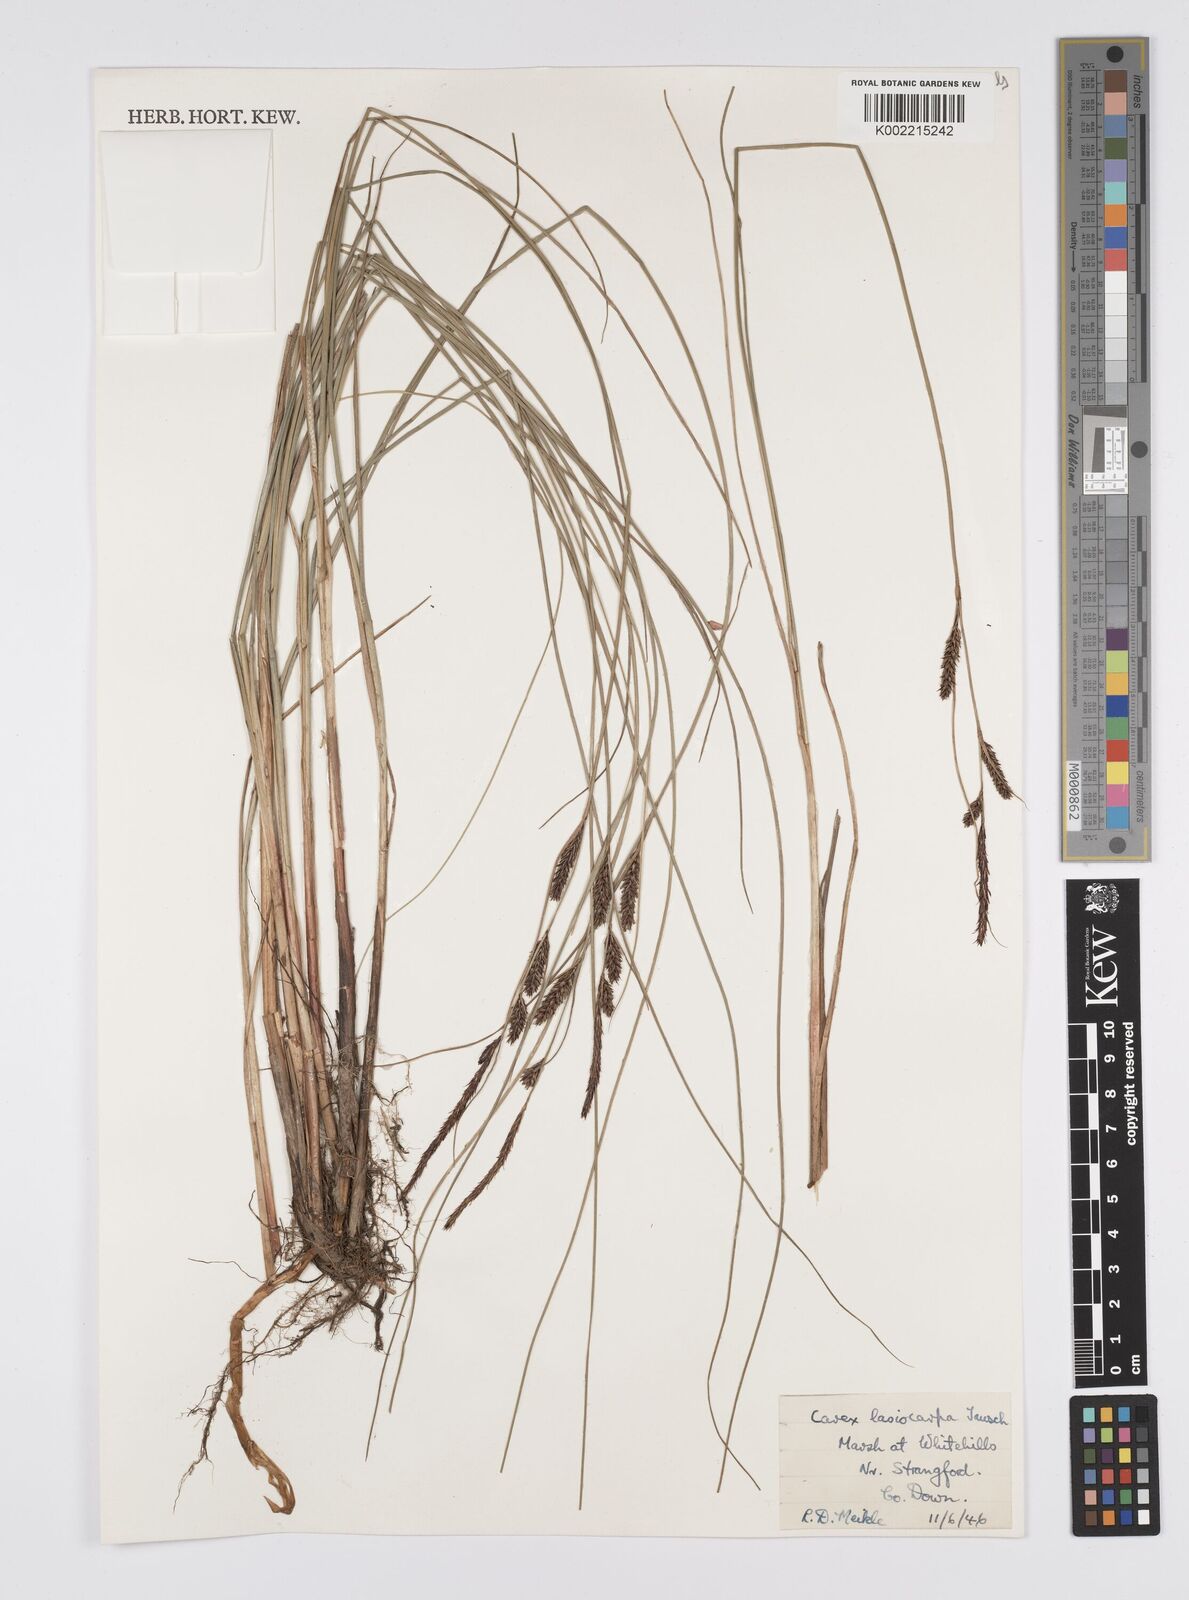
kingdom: Plantae
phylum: Tracheophyta
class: Liliopsida
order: Poales
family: Cyperaceae
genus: Carex
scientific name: Carex lasiocarpa
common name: Slender sedge
